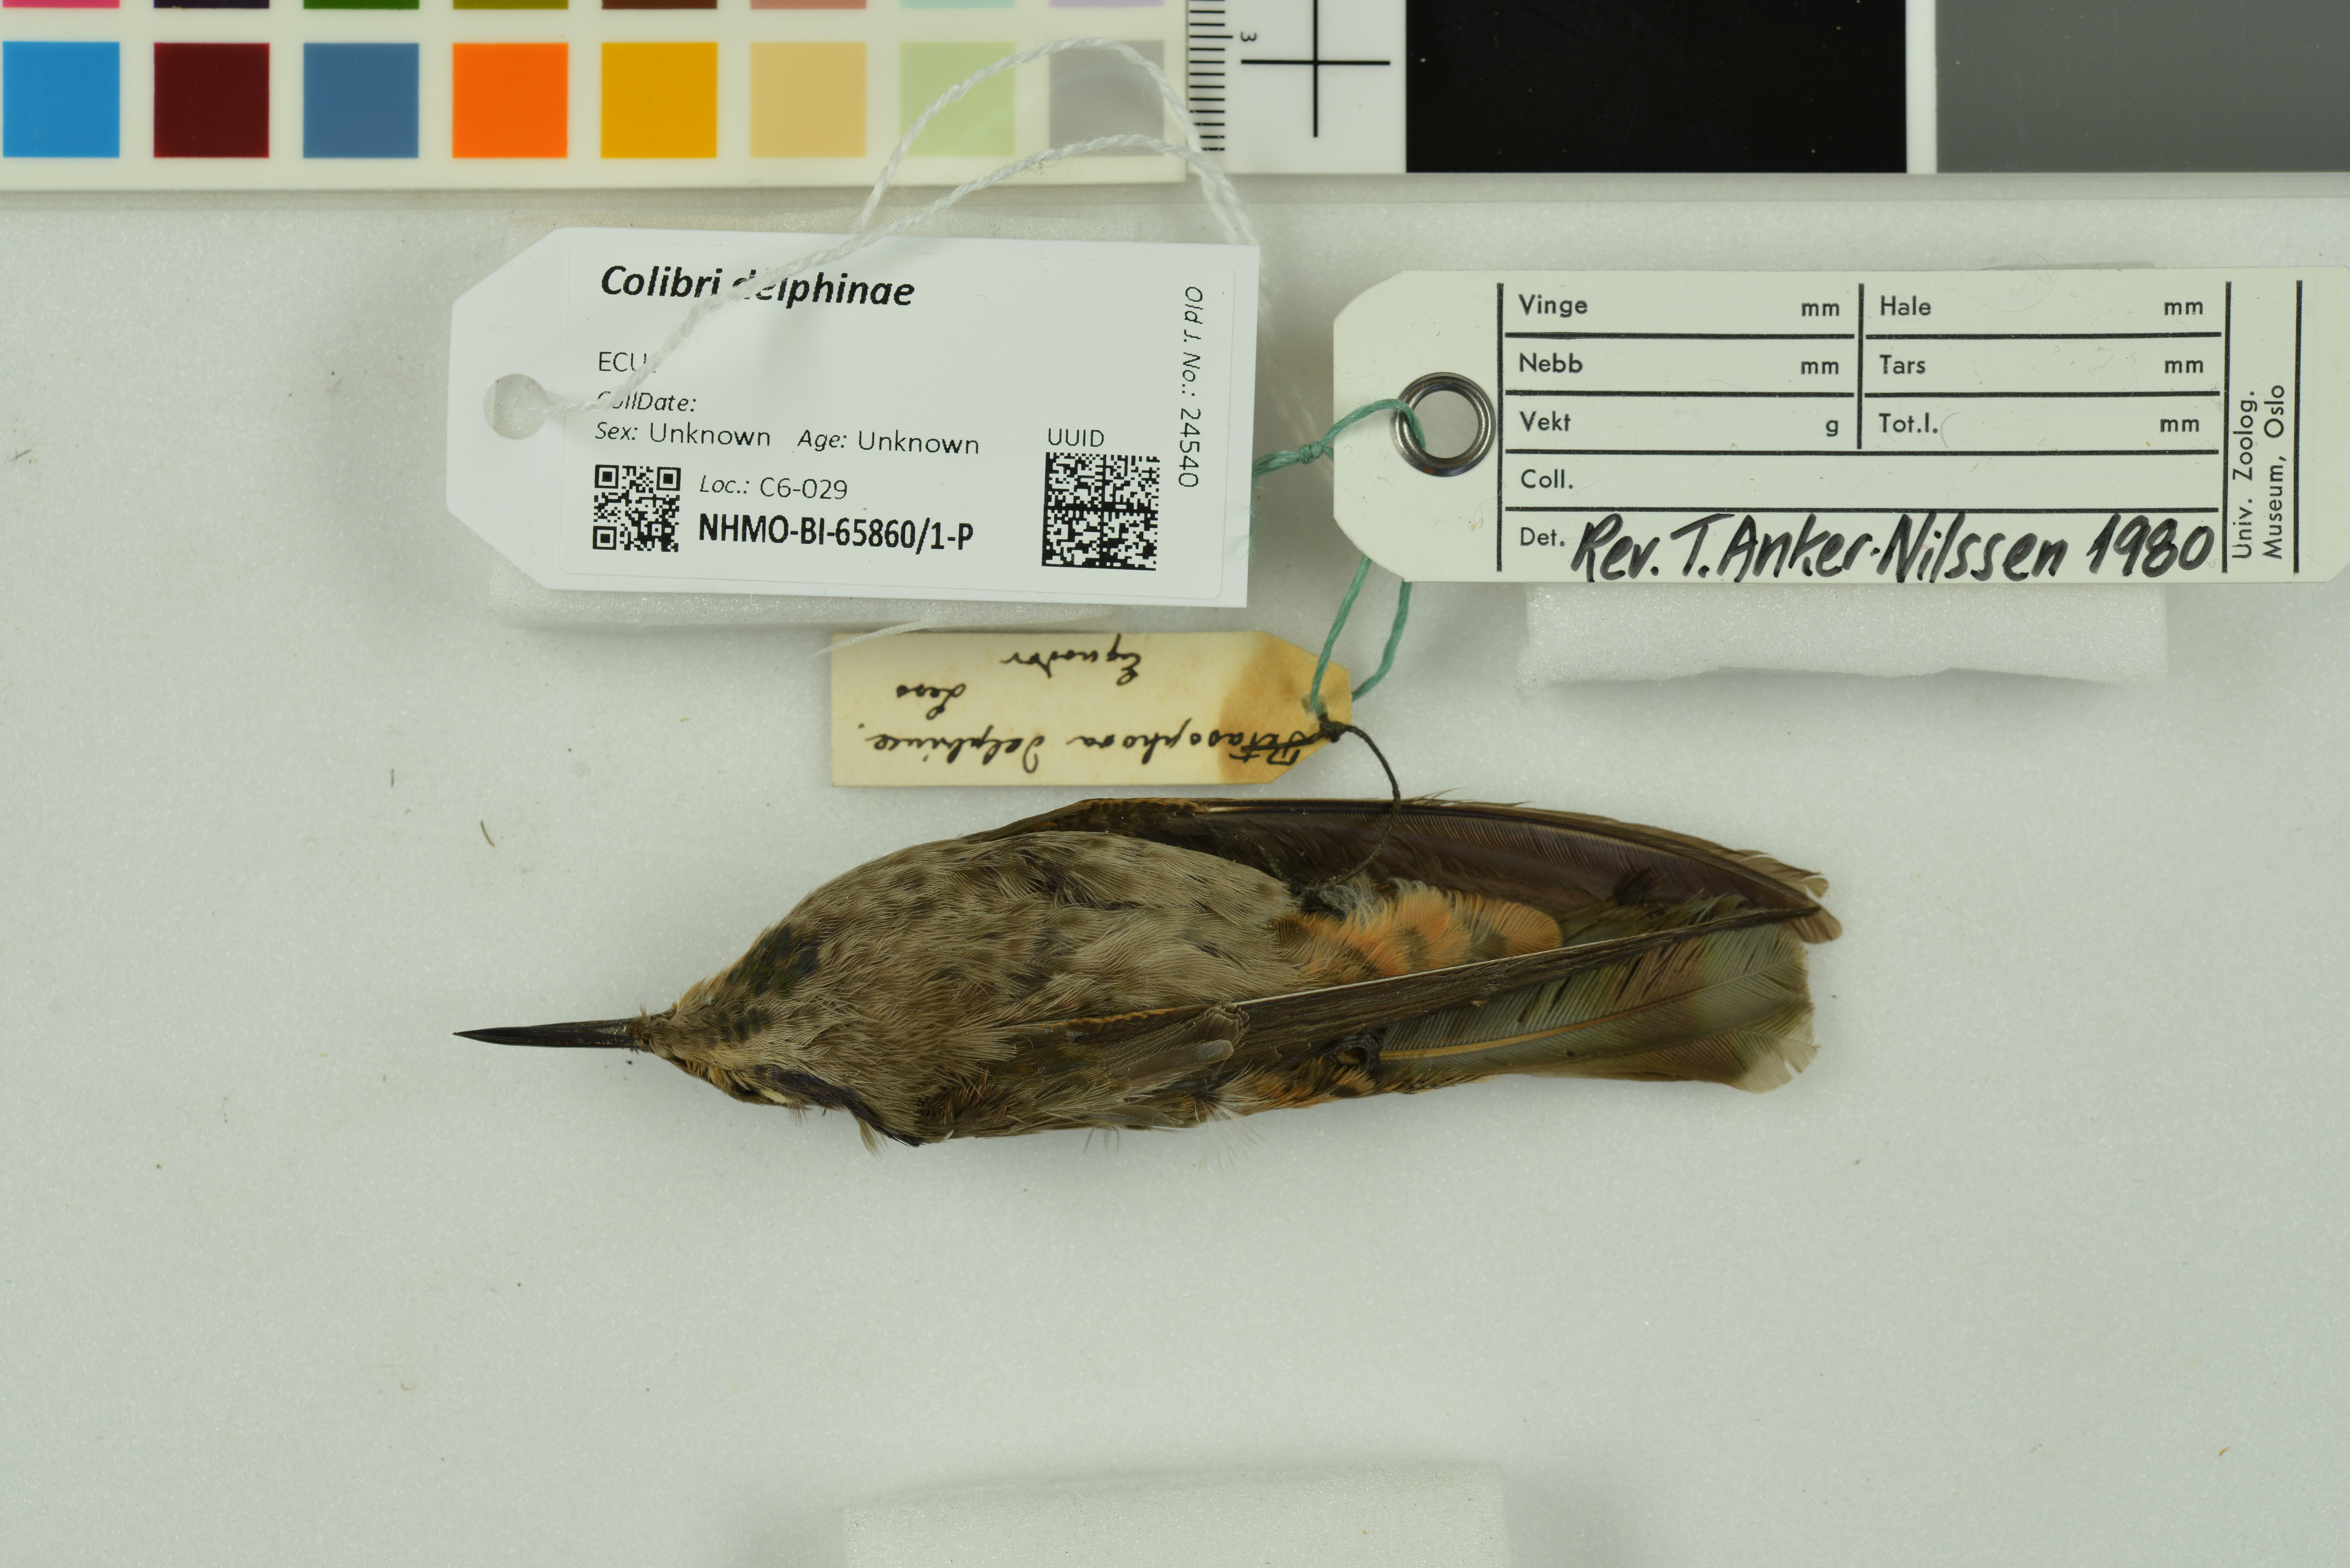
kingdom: Animalia
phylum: Chordata
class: Aves
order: Apodiformes
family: Trochilidae
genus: Colibri
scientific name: Colibri delphinae
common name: Brown violetear
